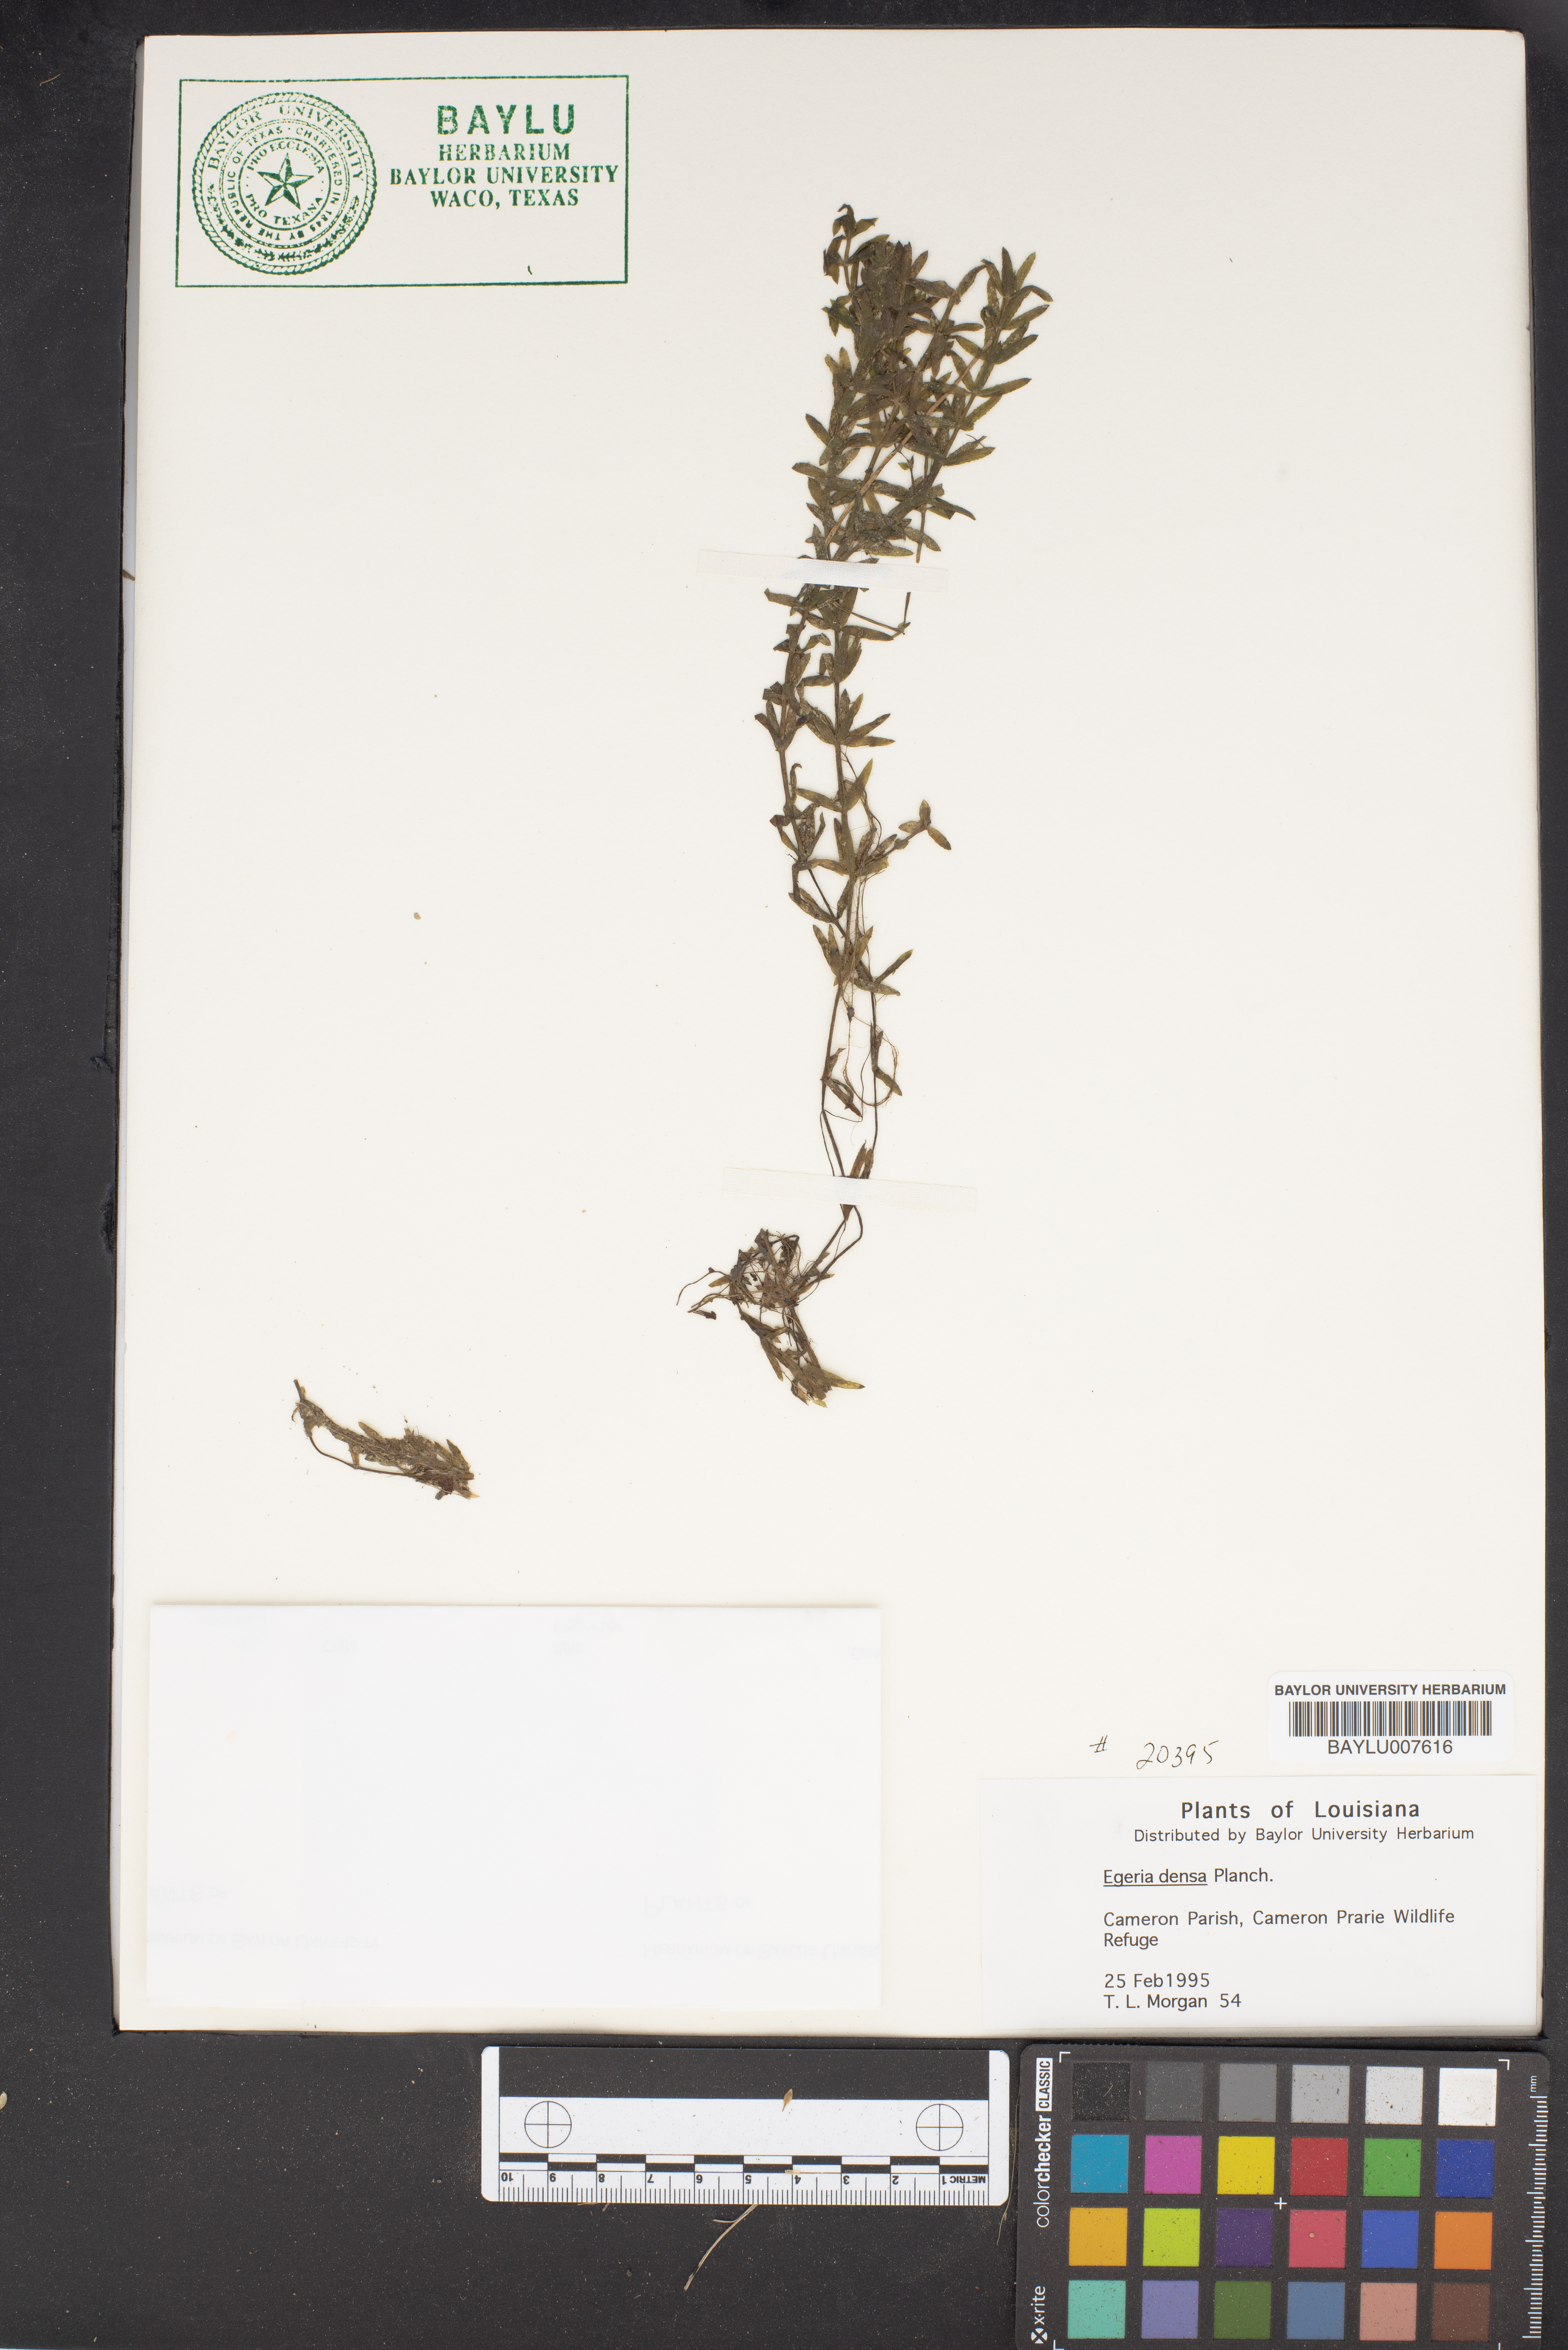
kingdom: Plantae
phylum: Tracheophyta
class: Liliopsida
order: Alismatales
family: Hydrocharitaceae
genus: Elodea
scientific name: Elodea densa
